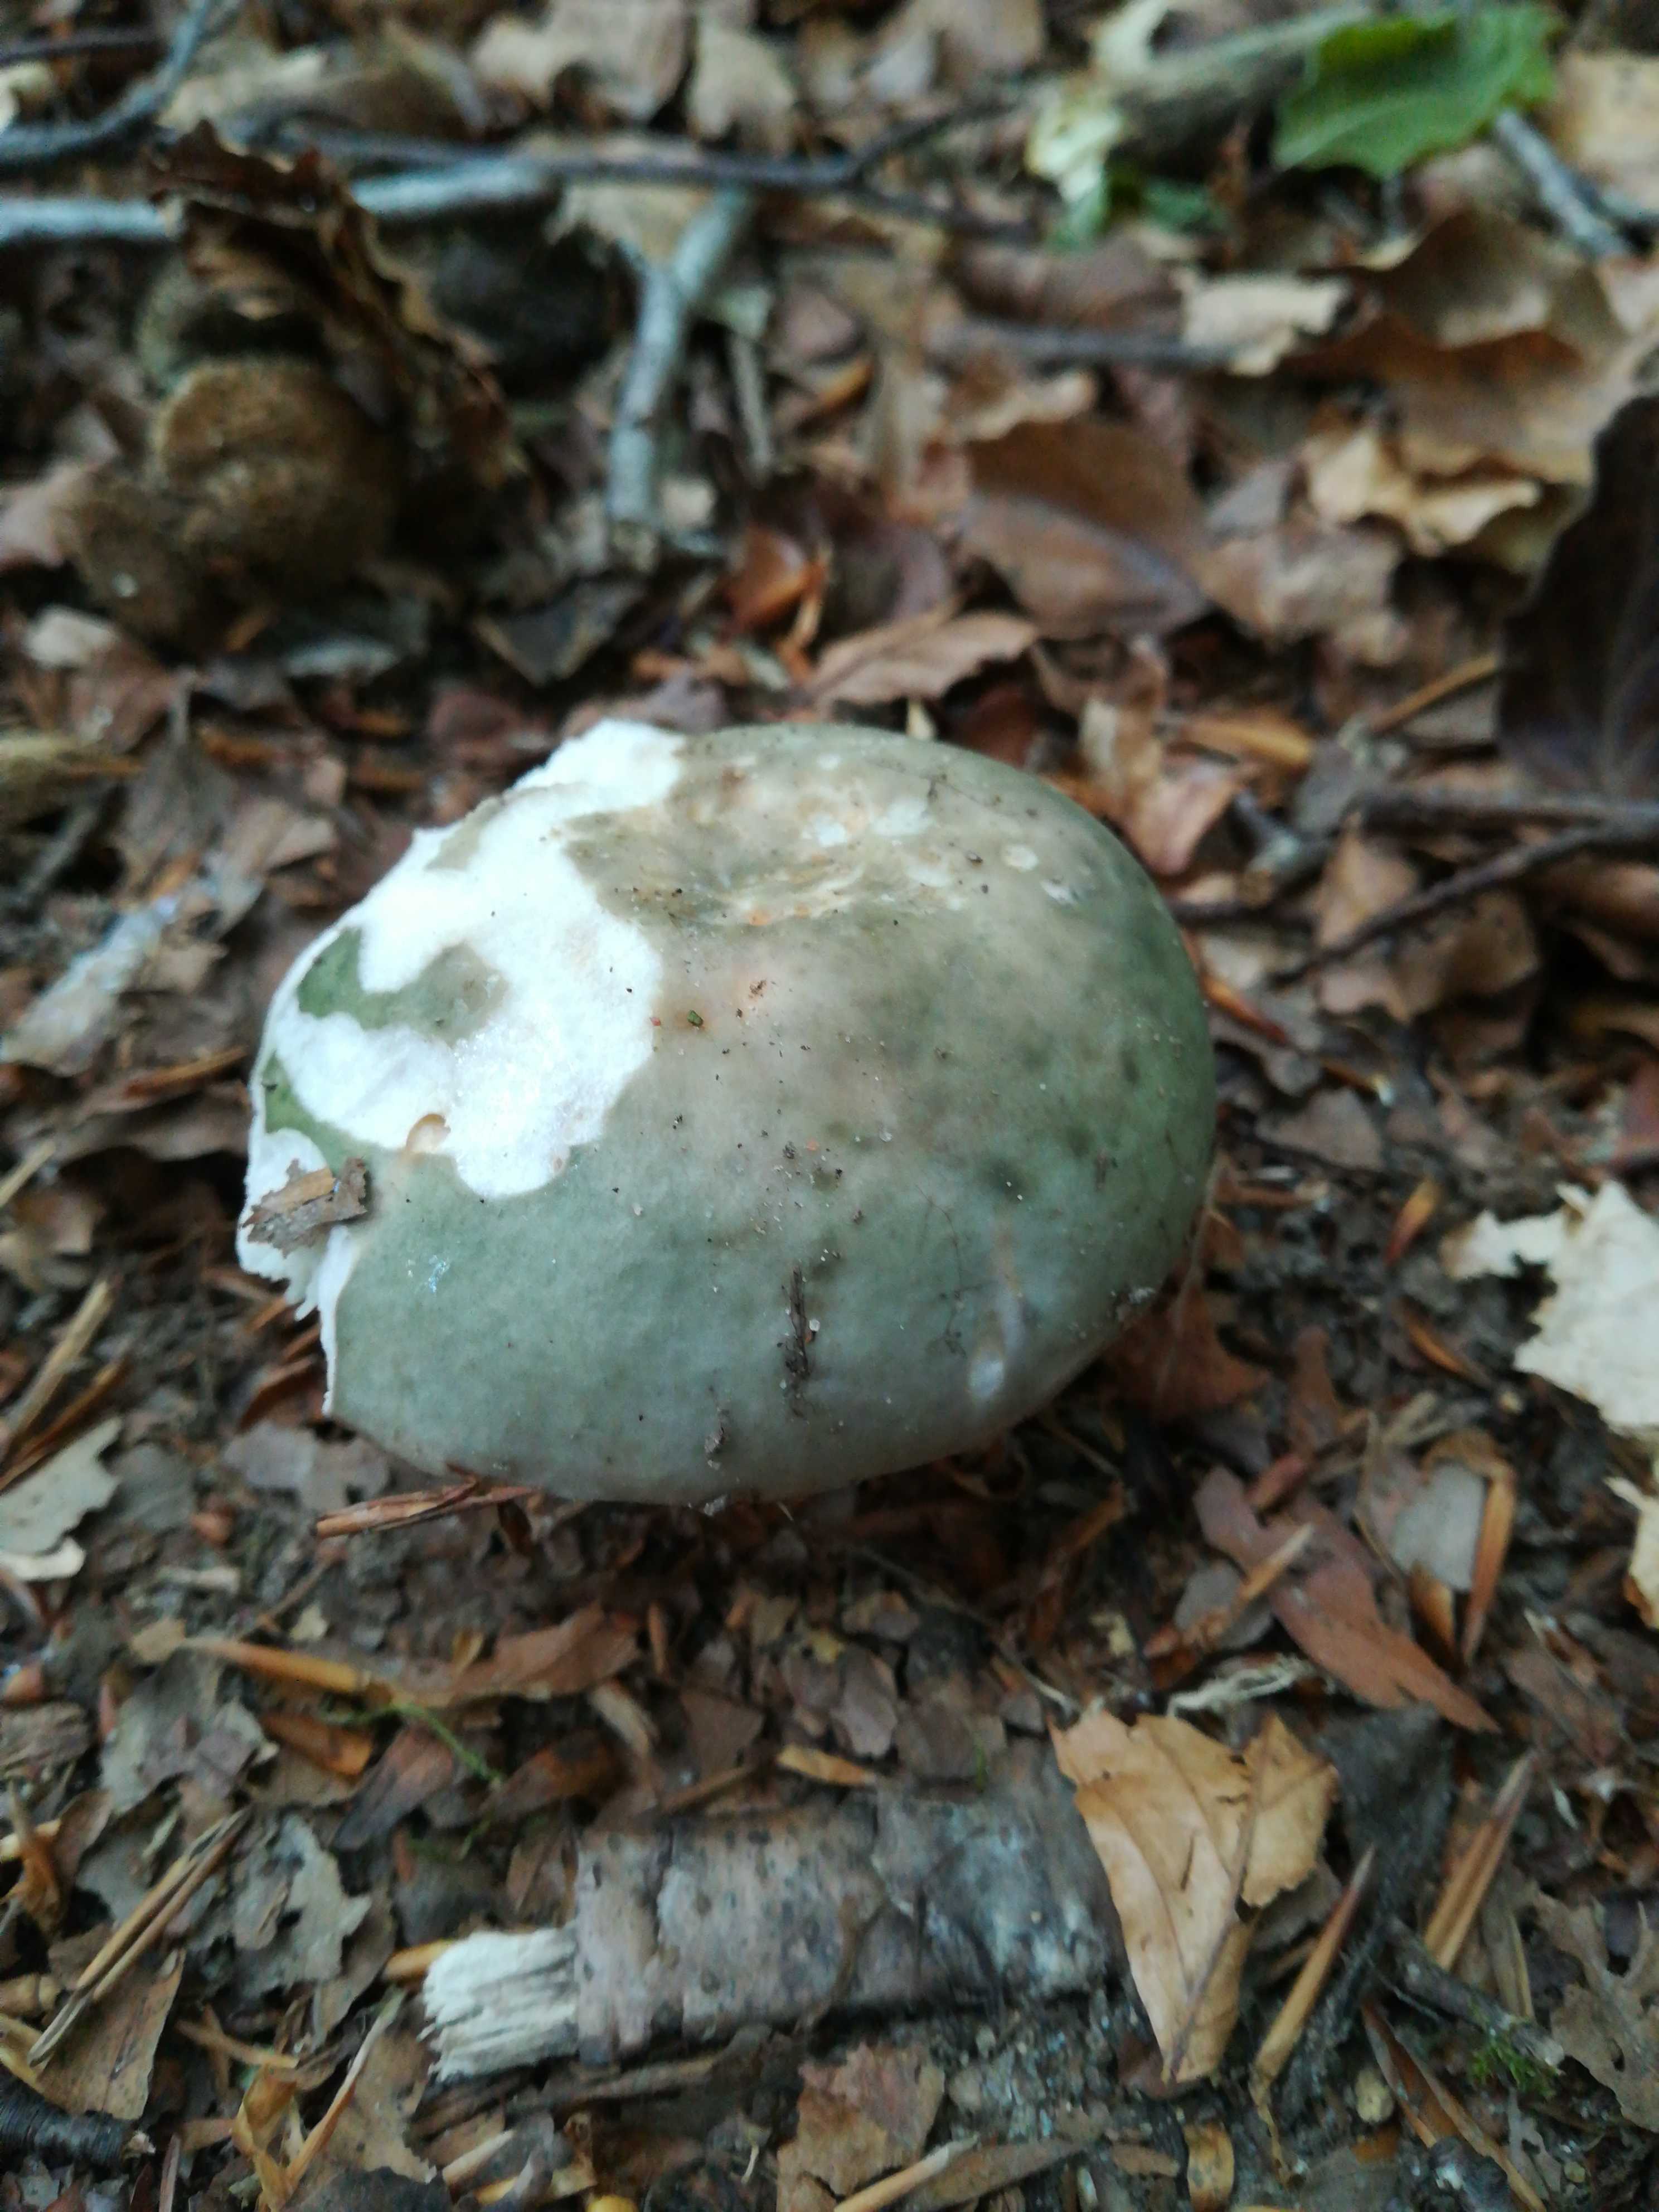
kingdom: Fungi
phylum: Basidiomycota
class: Agaricomycetes
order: Russulales
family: Russulaceae
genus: Russula
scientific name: Russula cyanoxantha
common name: broget skørhat
